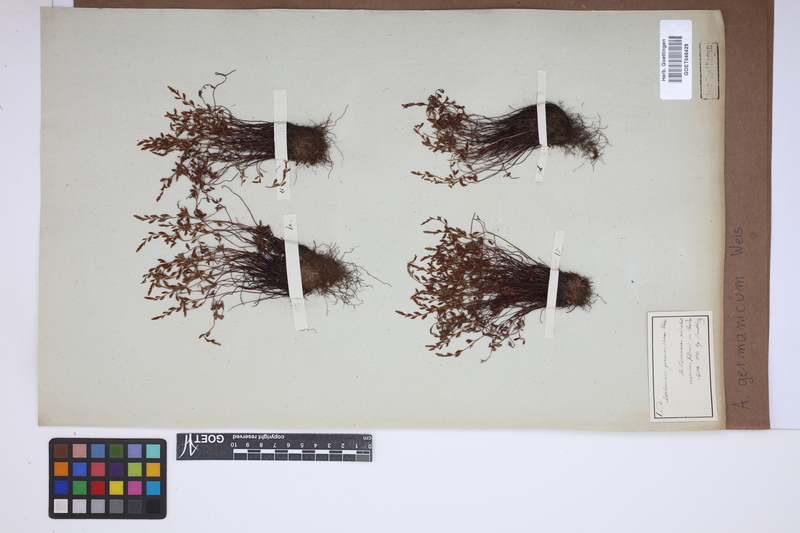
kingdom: Plantae
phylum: Tracheophyta
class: Polypodiopsida
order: Polypodiales
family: Aspleniaceae
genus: Asplenium
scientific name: Asplenium
